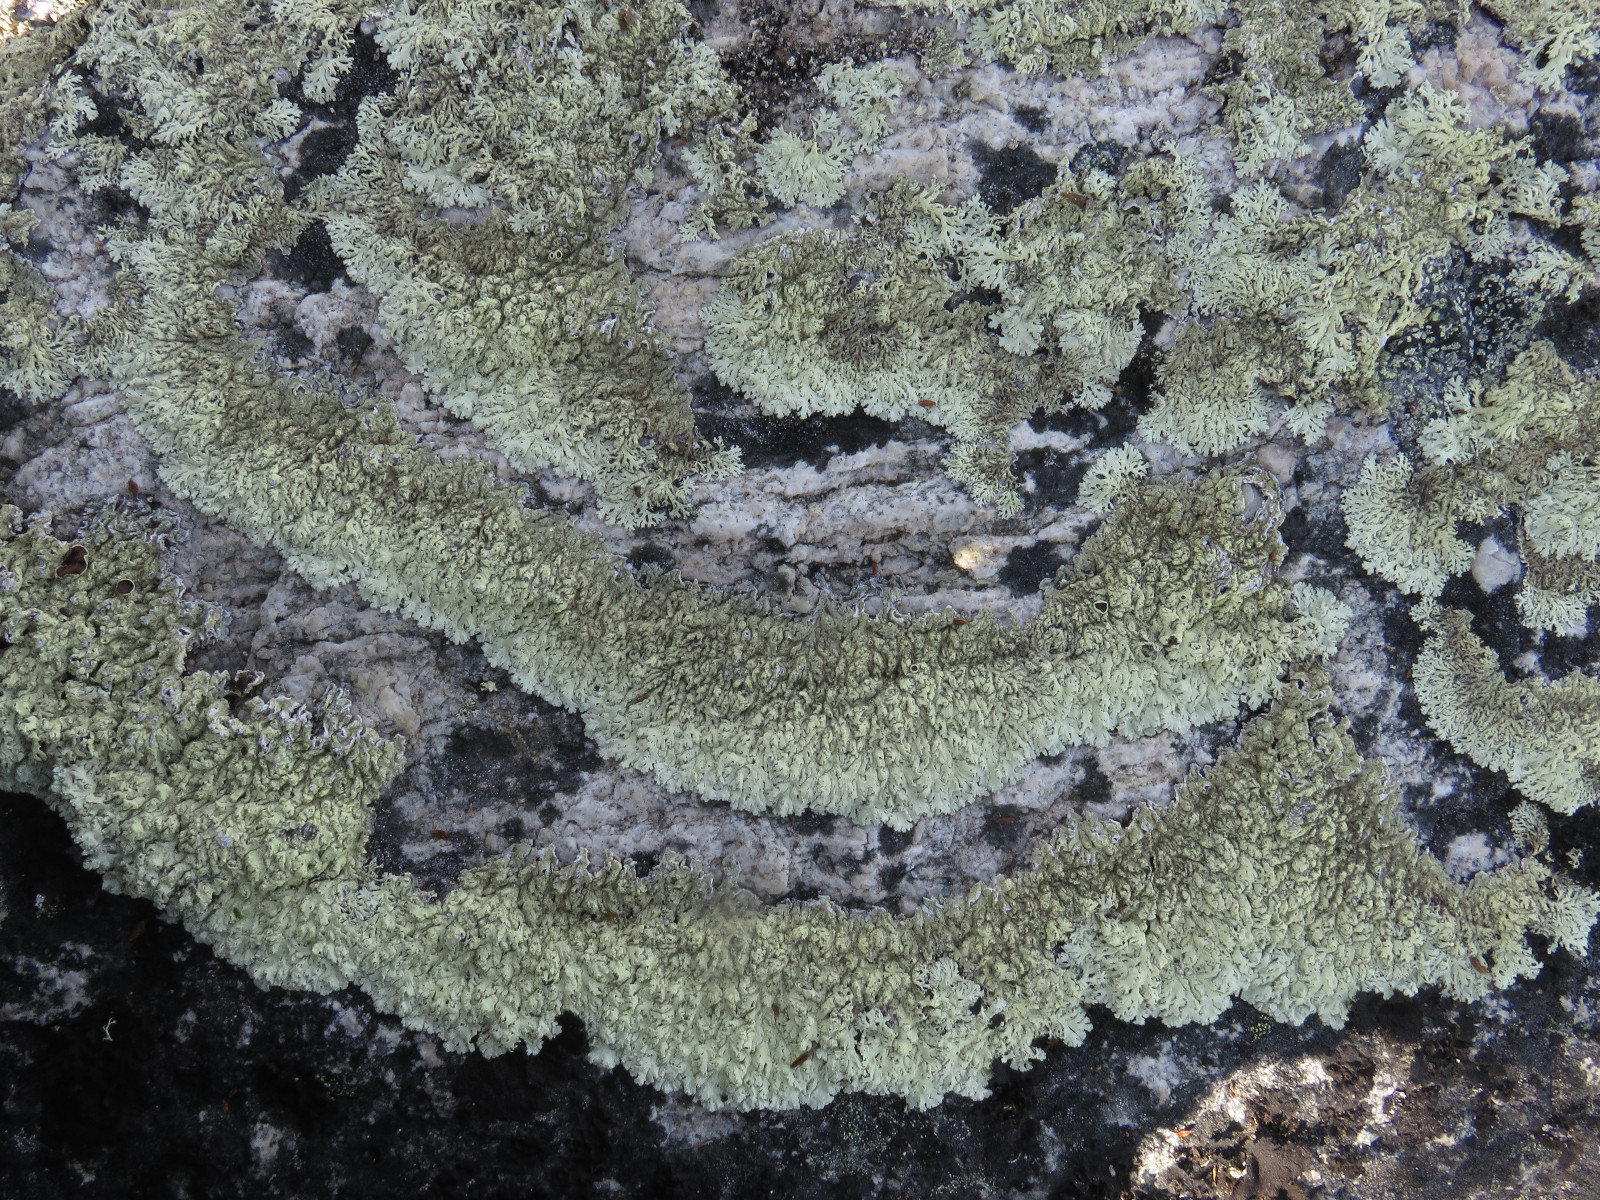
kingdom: Fungi
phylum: Ascomycota
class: Lecanoromycetes
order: Lecanorales
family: Parmeliaceae
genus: Arctoparmelia
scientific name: Arctoparmelia centrifuga
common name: Concentric ring lichen
